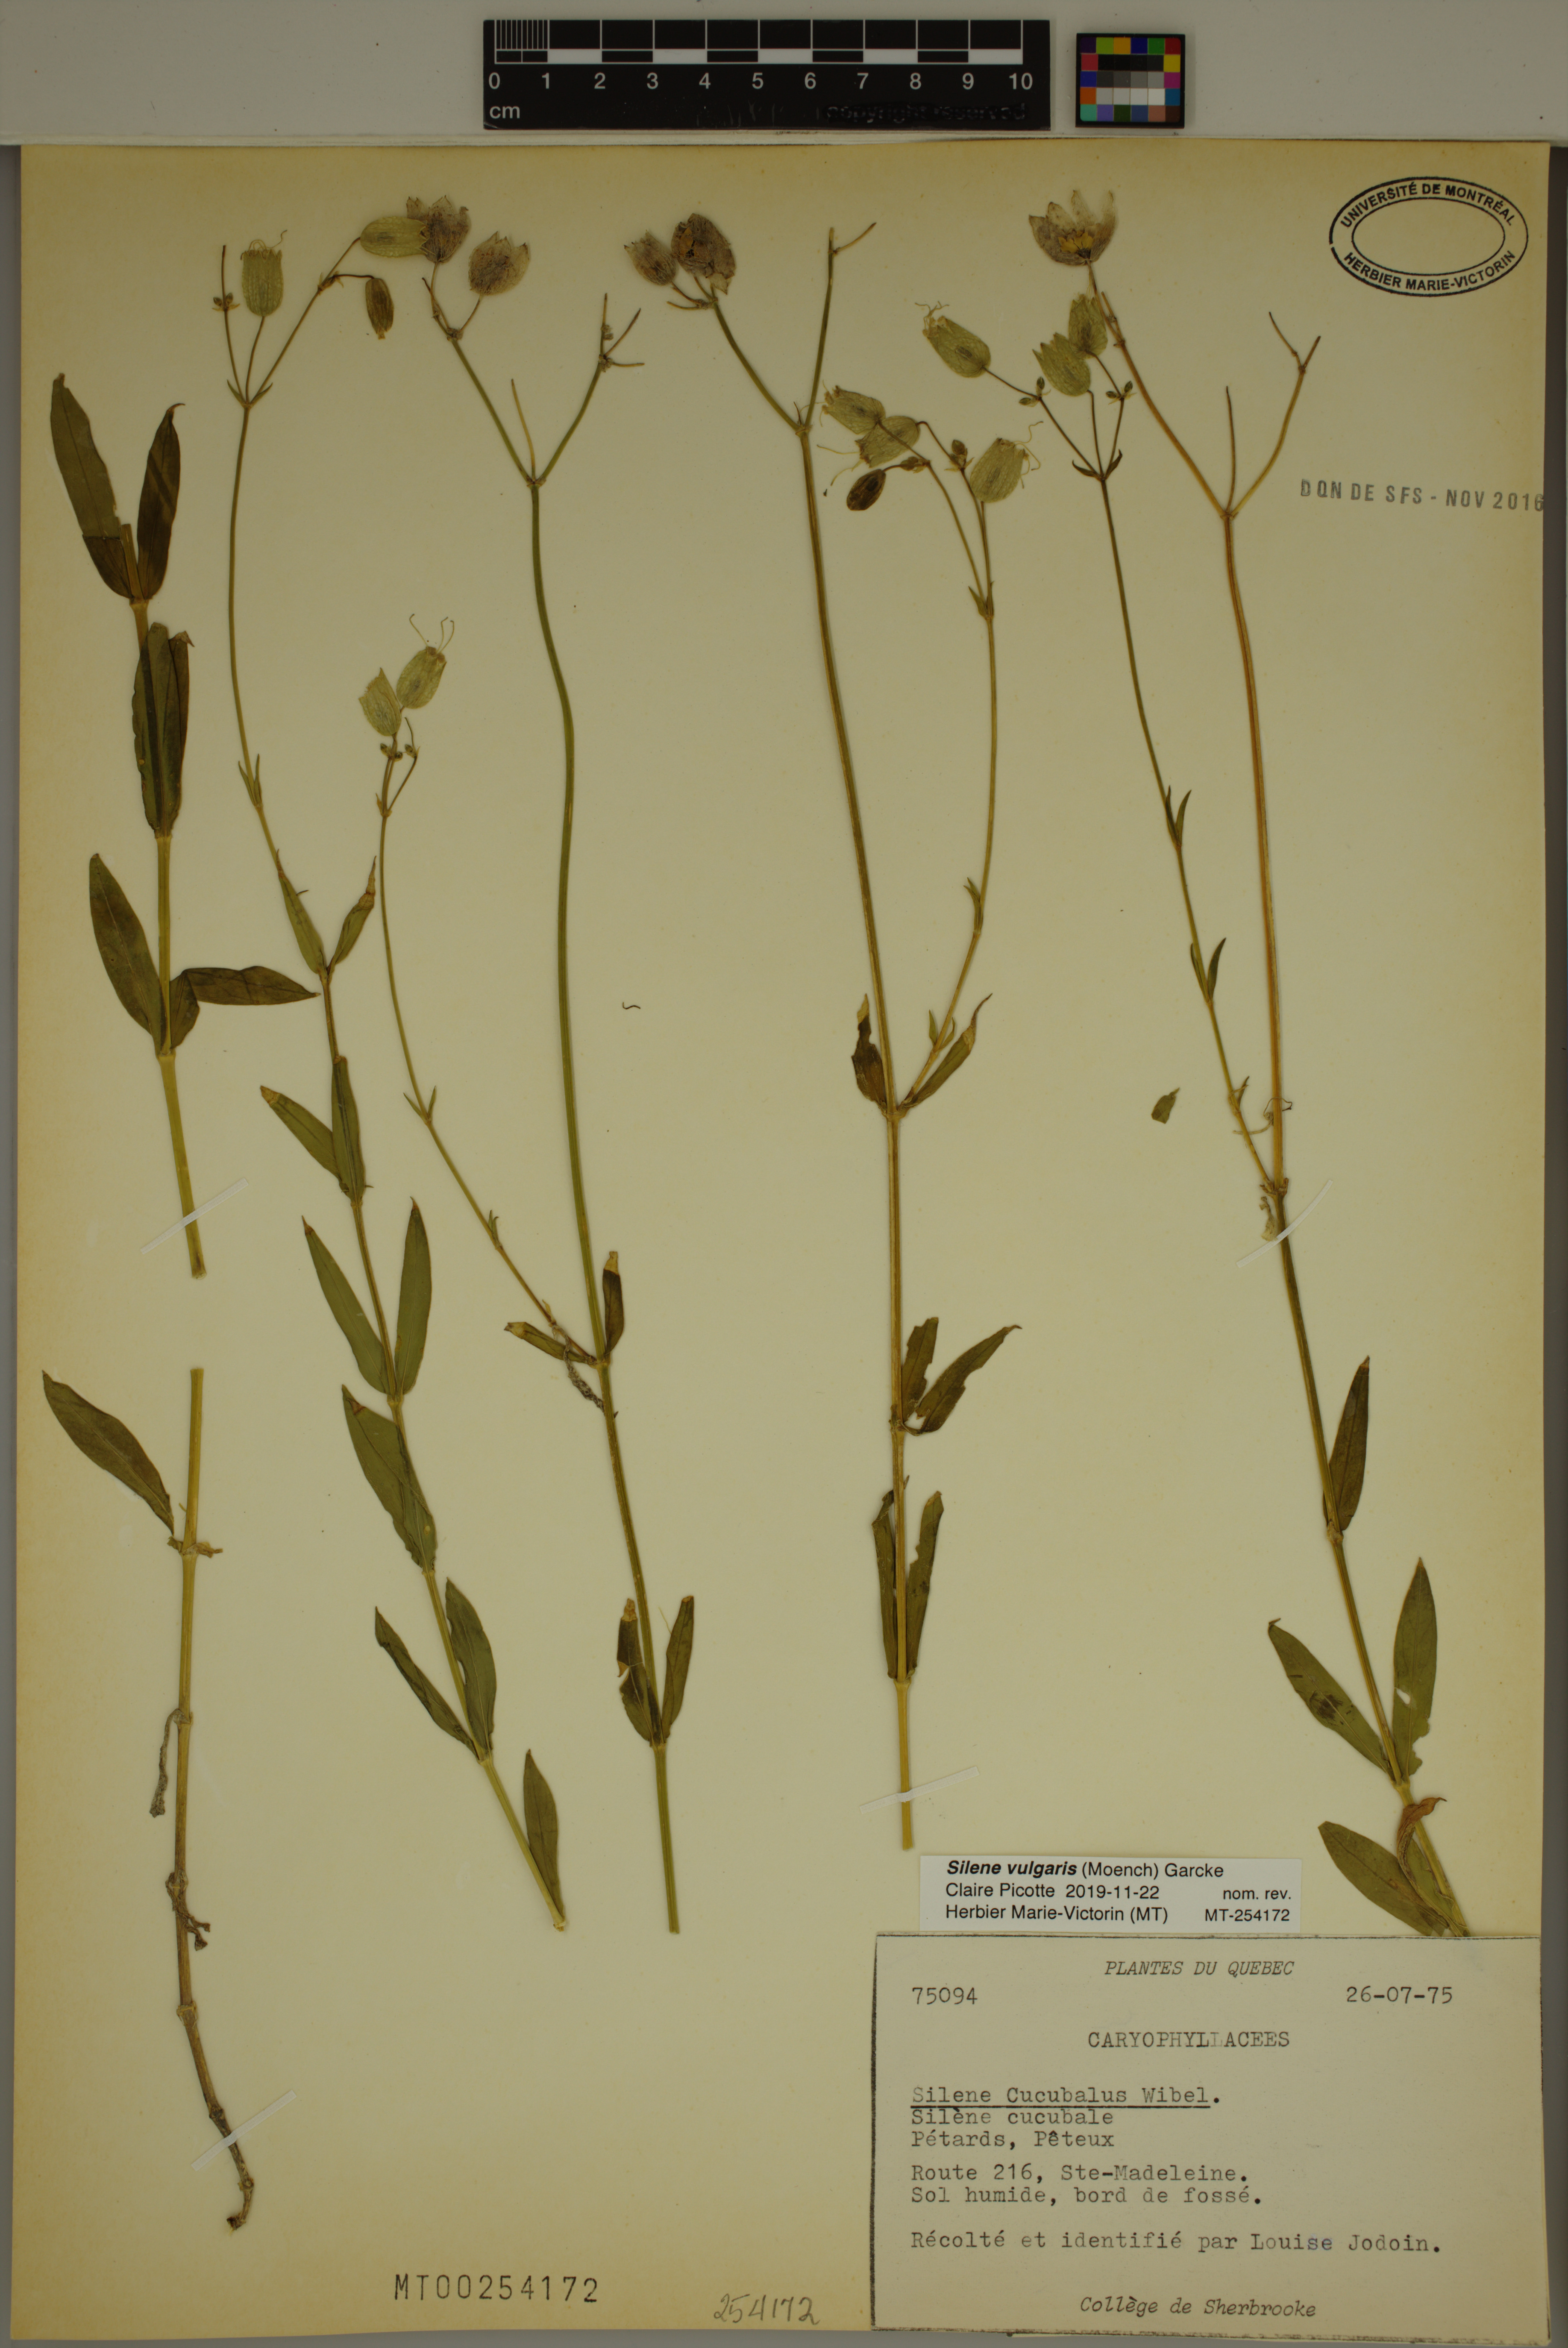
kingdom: Plantae
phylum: Tracheophyta
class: Magnoliopsida
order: Caryophyllales
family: Caryophyllaceae
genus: Silene
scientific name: Silene vulgaris
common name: Bladder campion
